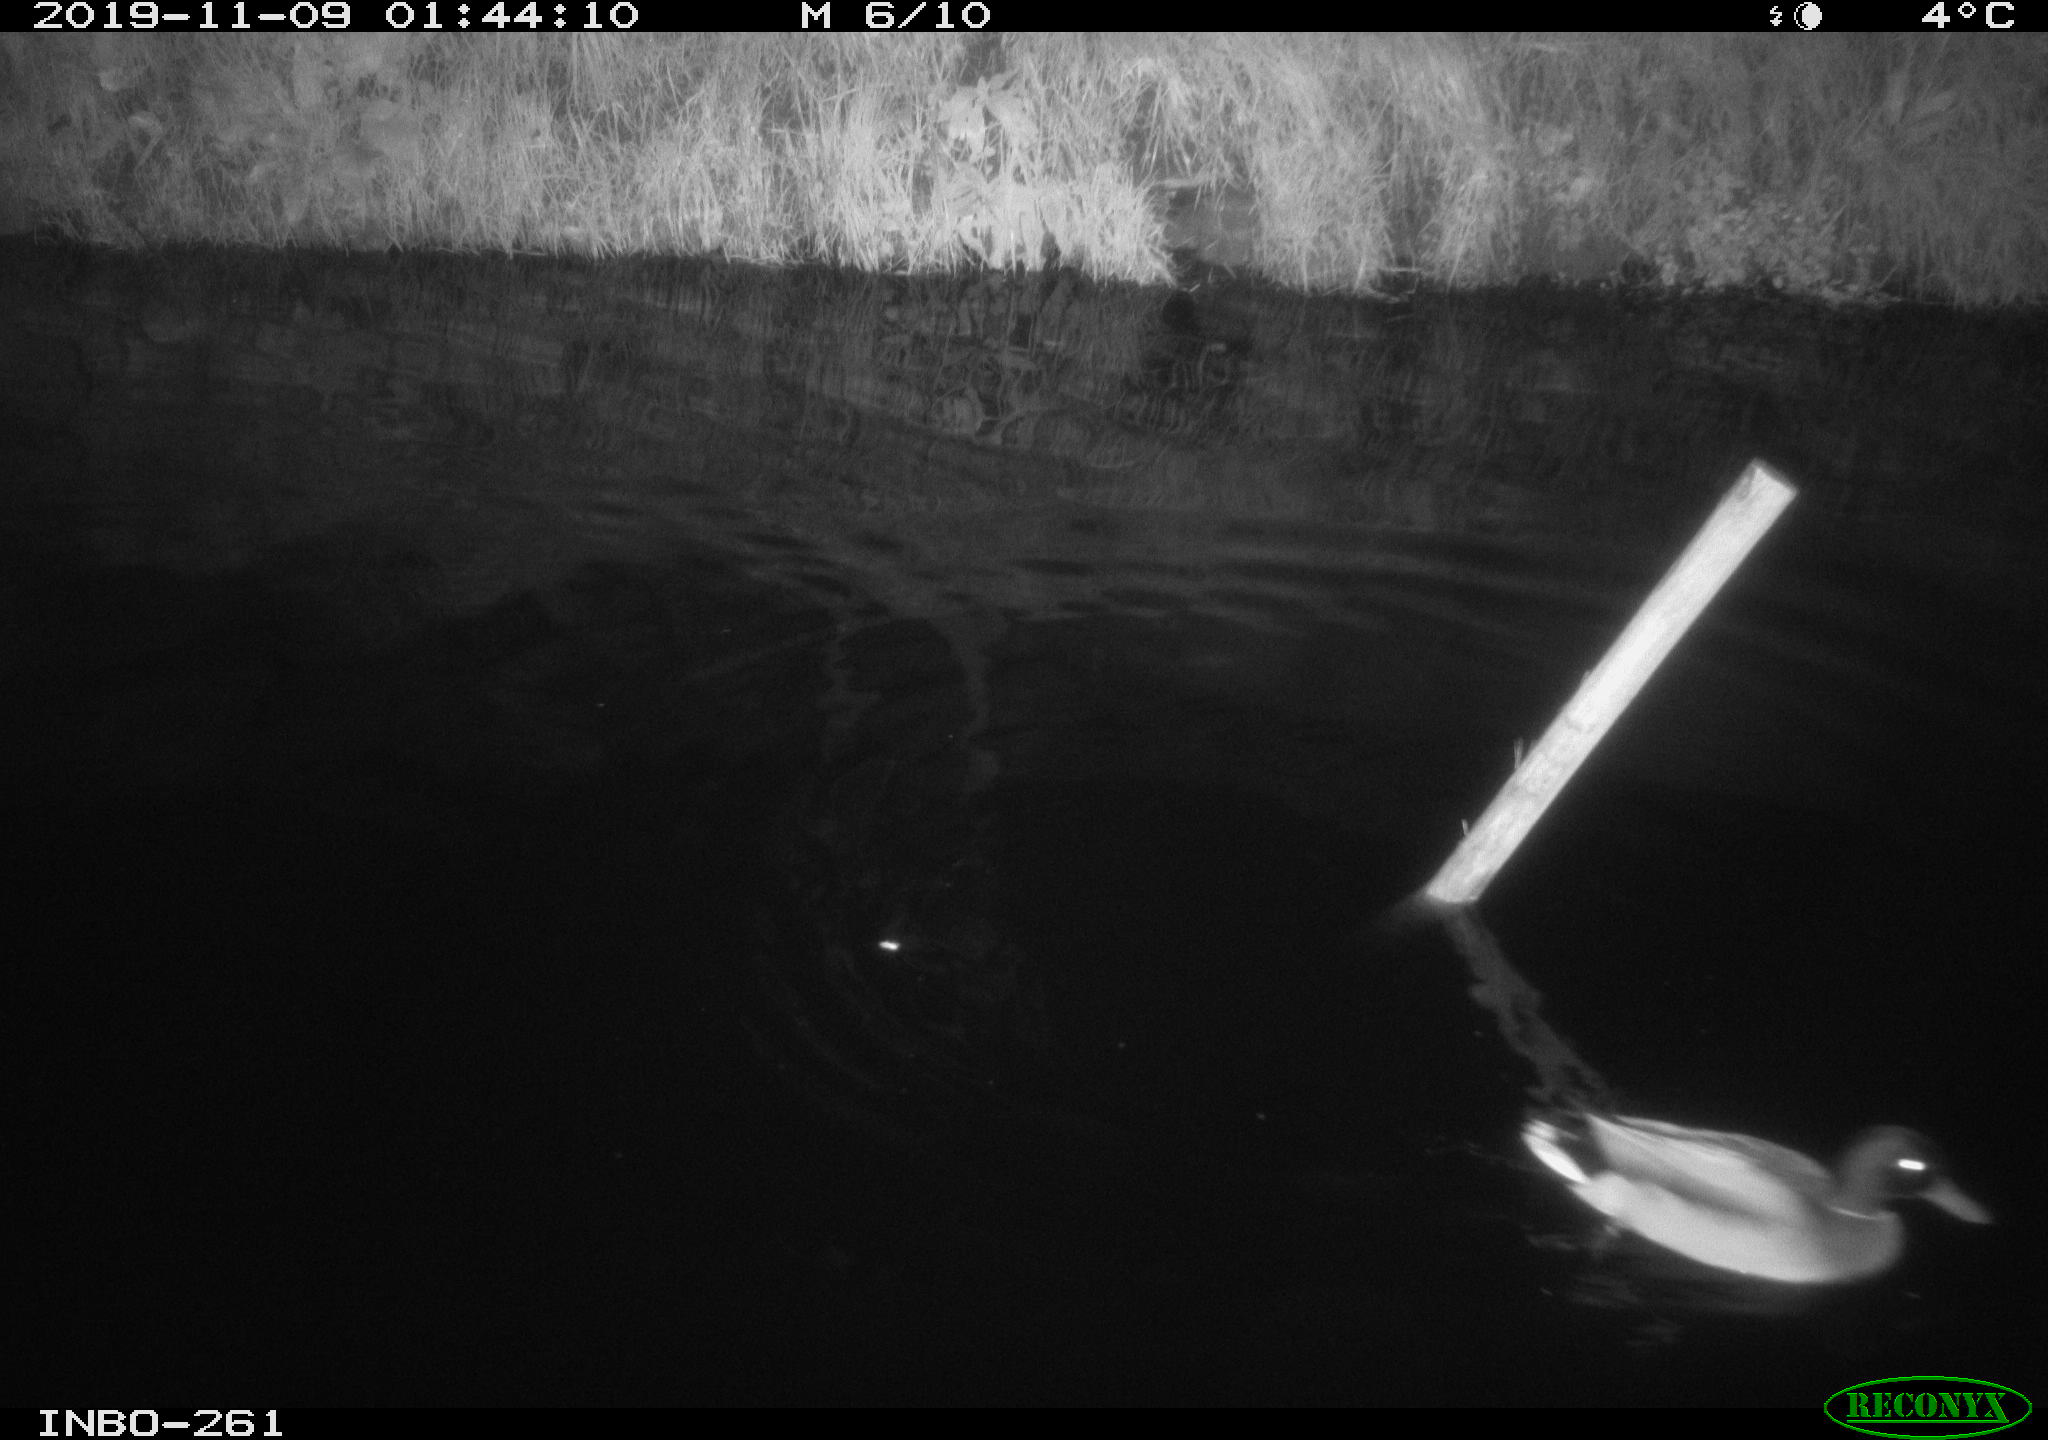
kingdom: Animalia
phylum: Chordata
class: Aves
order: Anseriformes
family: Anatidae
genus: Anas
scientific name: Anas platyrhynchos
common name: Mallard
